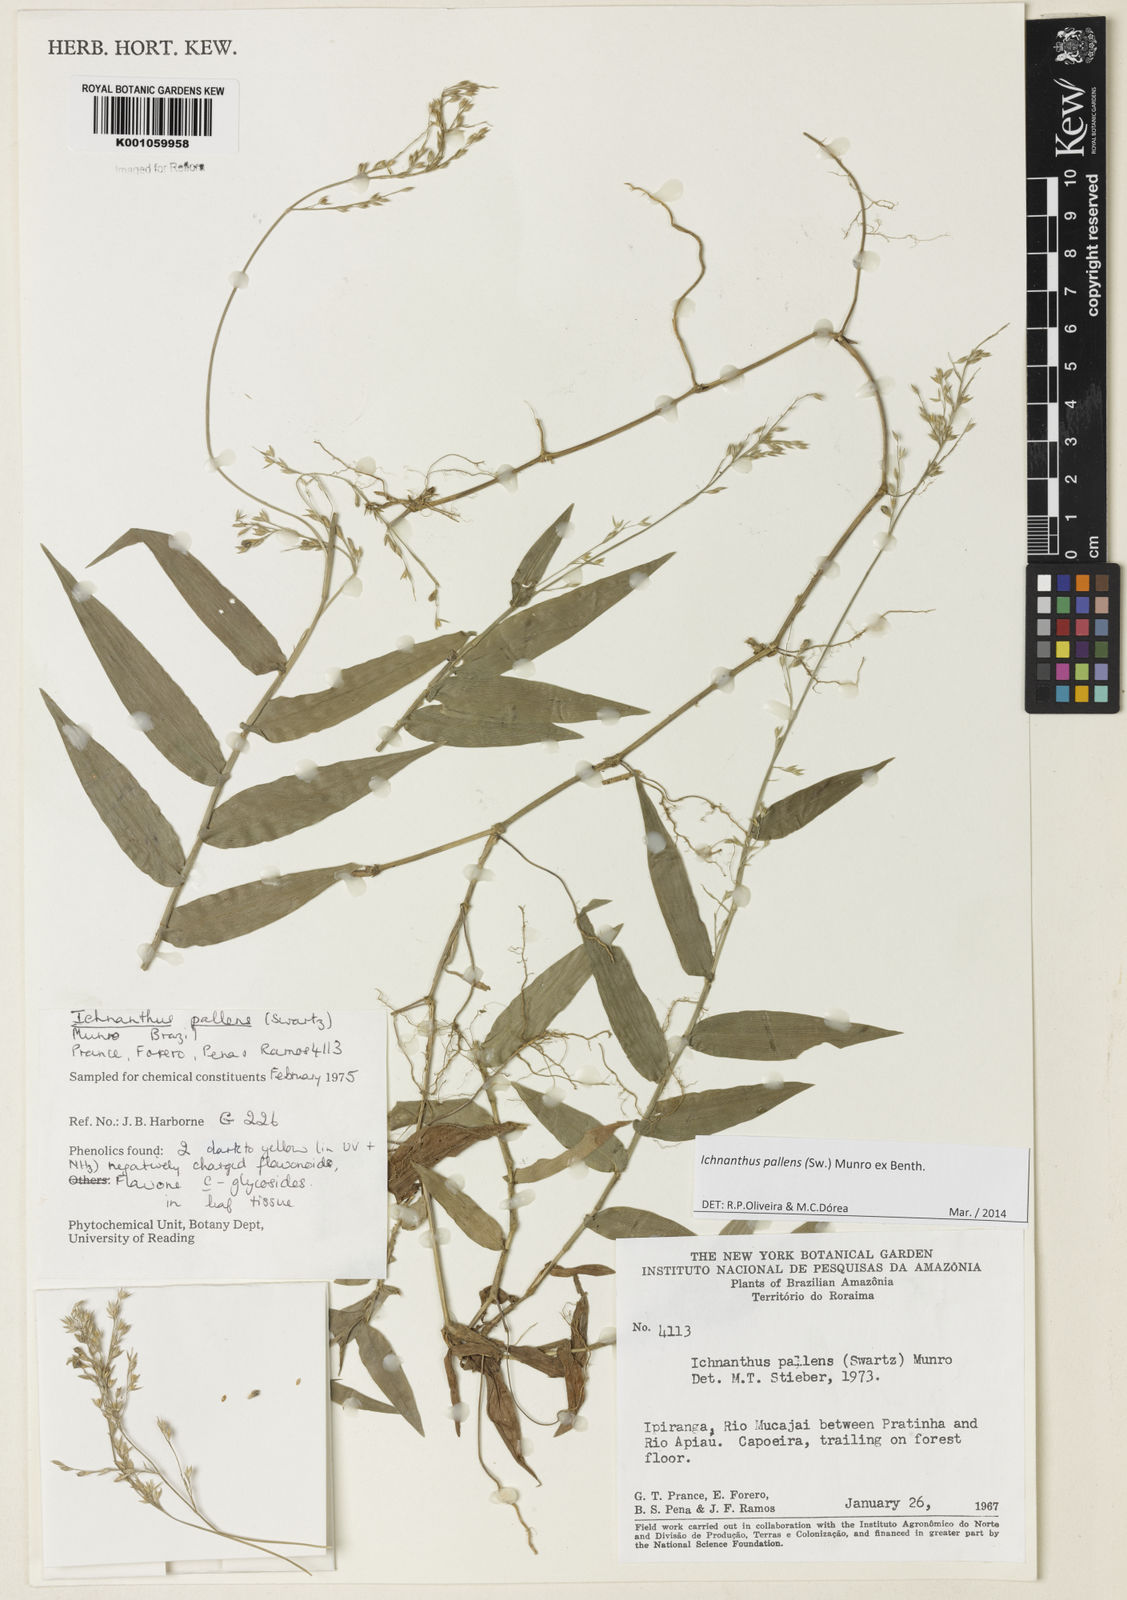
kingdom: Plantae
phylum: Tracheophyta
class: Liliopsida
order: Poales
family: Poaceae
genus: Ichnanthus
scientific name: Ichnanthus pallens
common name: Water grass
